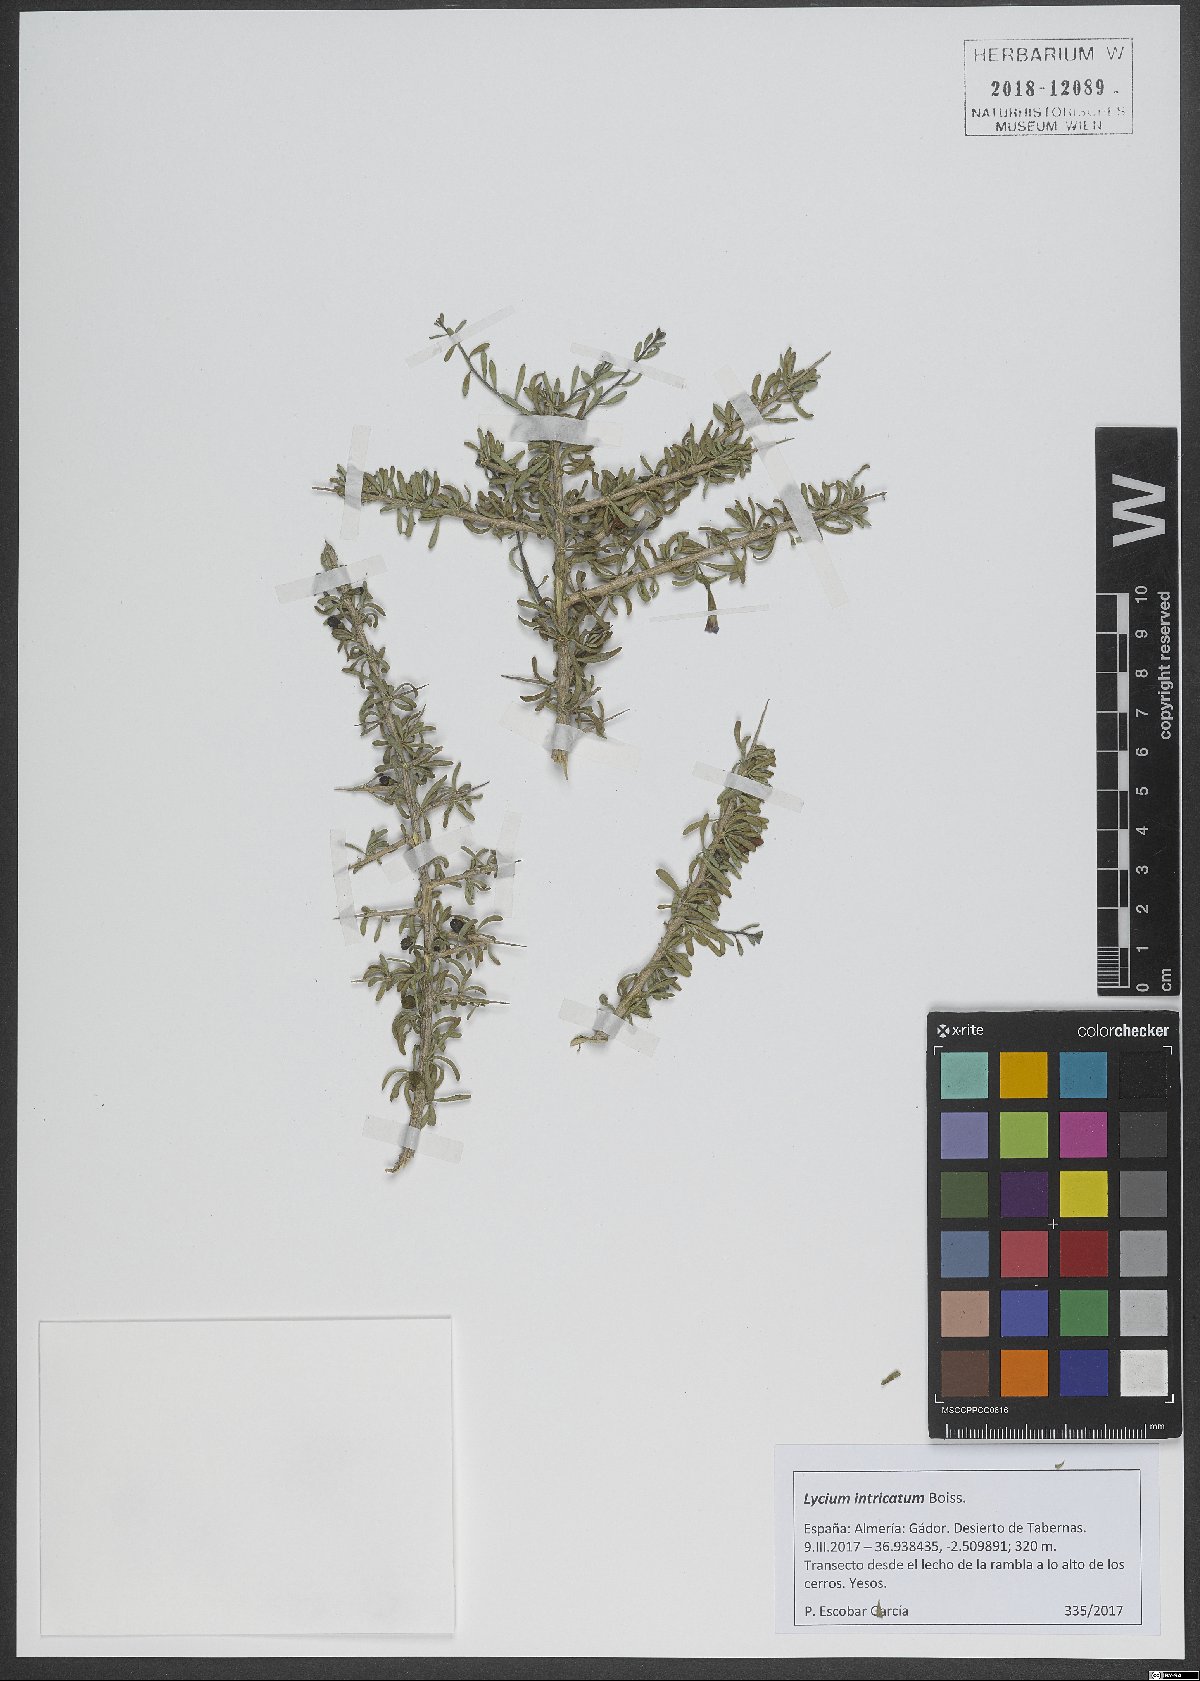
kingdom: Plantae
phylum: Tracheophyta
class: Magnoliopsida
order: Solanales
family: Solanaceae
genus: Lycium
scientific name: Lycium intricatum
